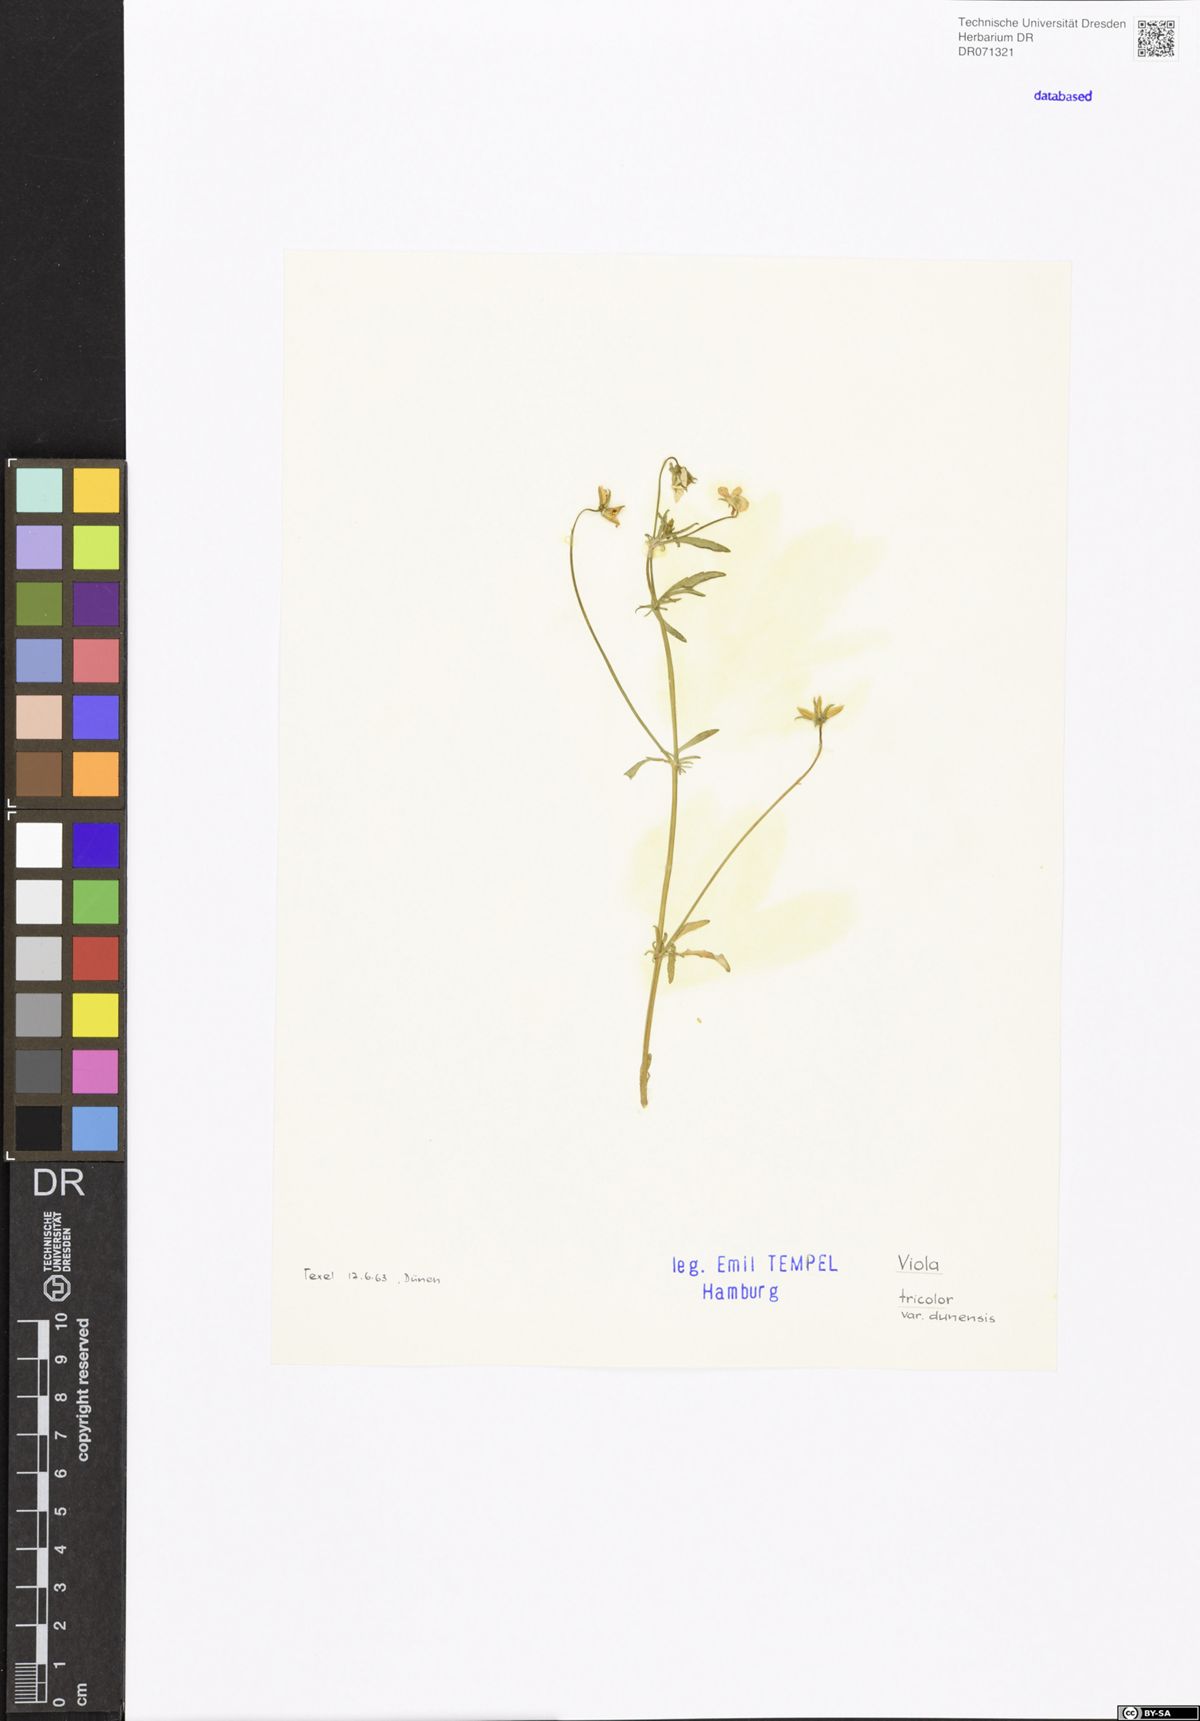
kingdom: Plantae
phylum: Tracheophyta
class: Magnoliopsida
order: Malpighiales
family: Violaceae
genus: Viola
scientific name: Viola tricolor
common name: Pansy
